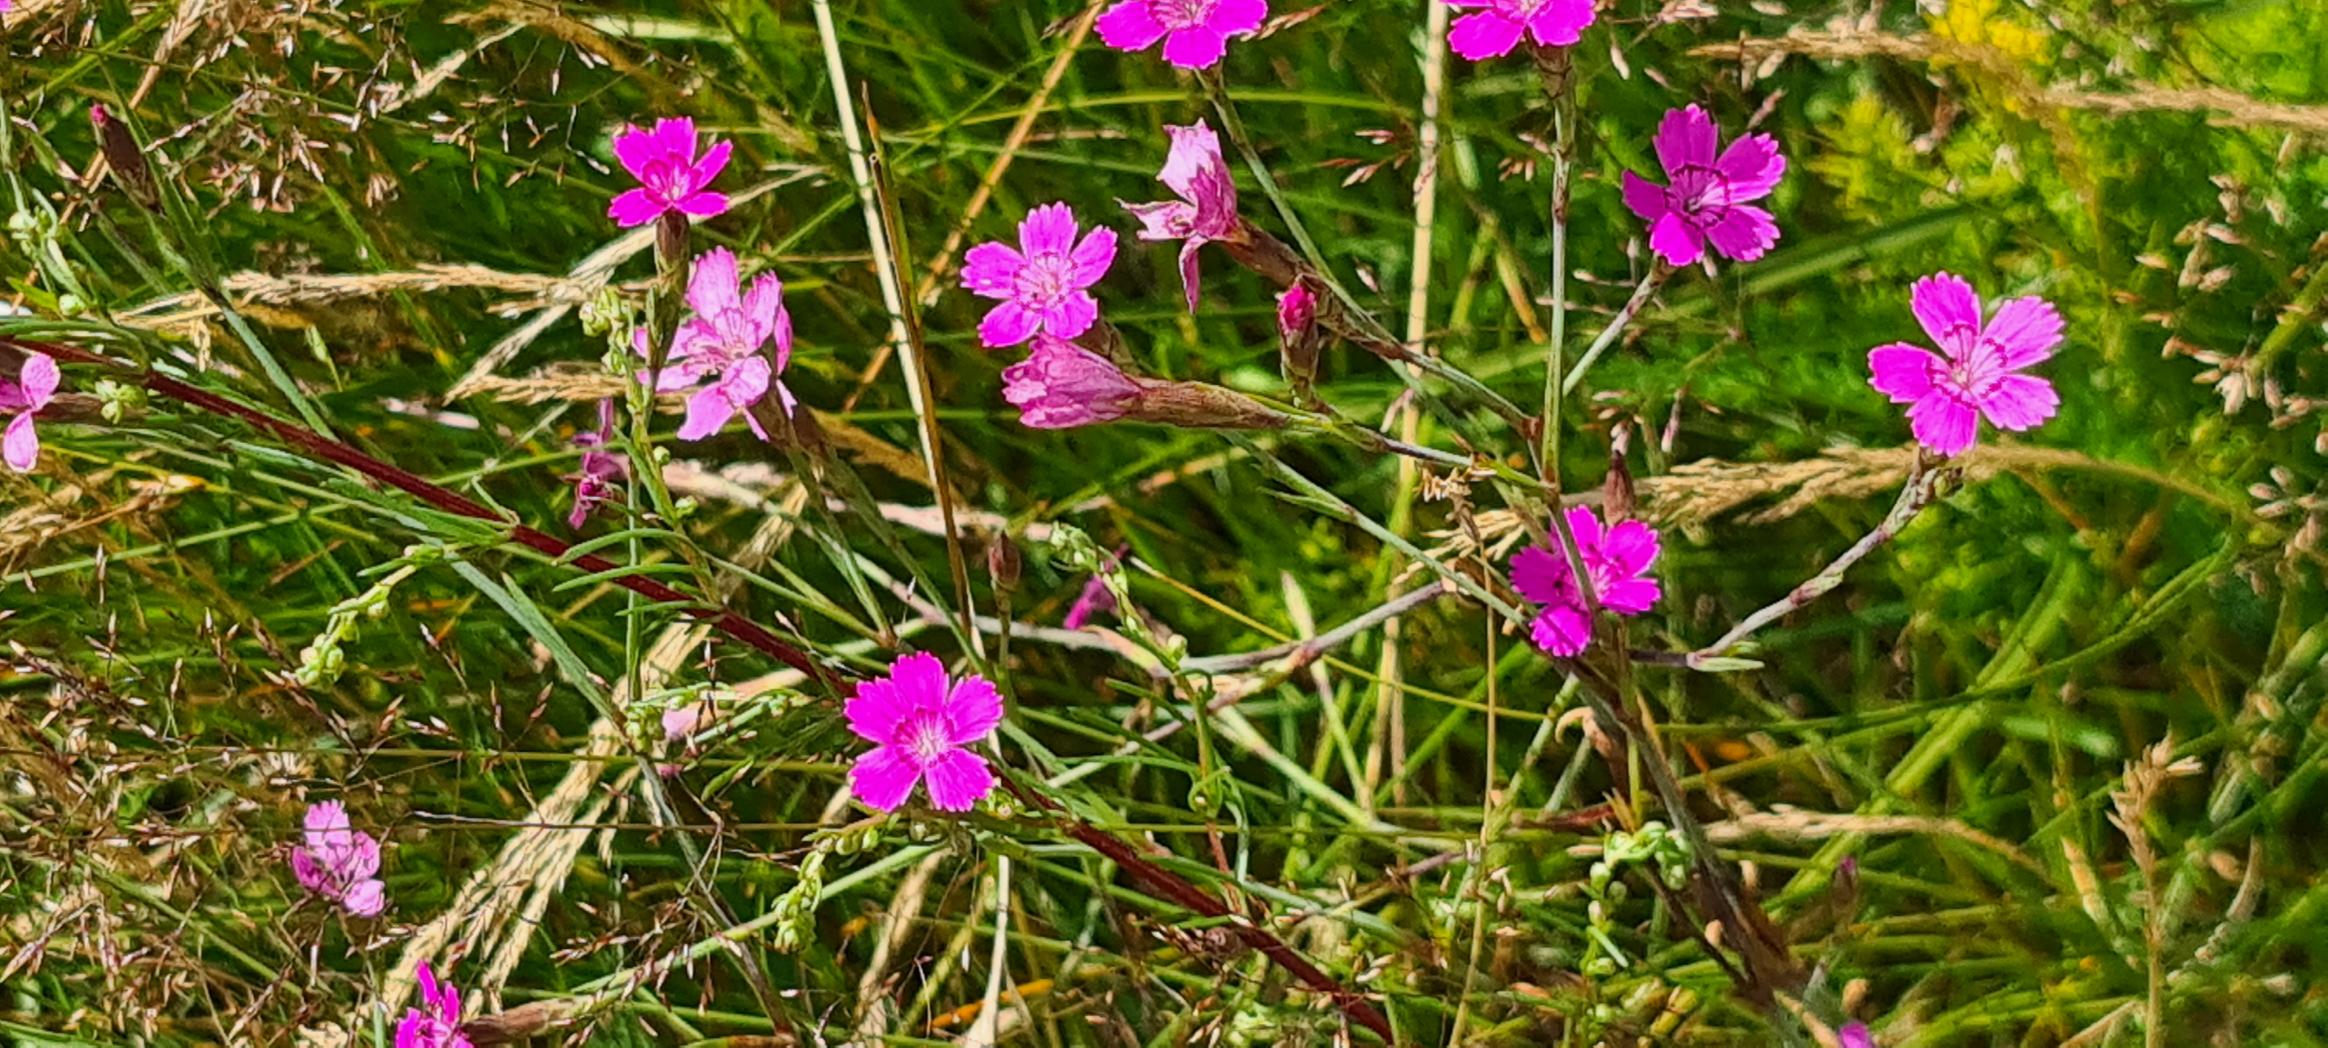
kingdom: Plantae
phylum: Tracheophyta
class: Magnoliopsida
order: Caryophyllales
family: Caryophyllaceae
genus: Dianthus
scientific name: Dianthus deltoides
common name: Bakke-nellike
